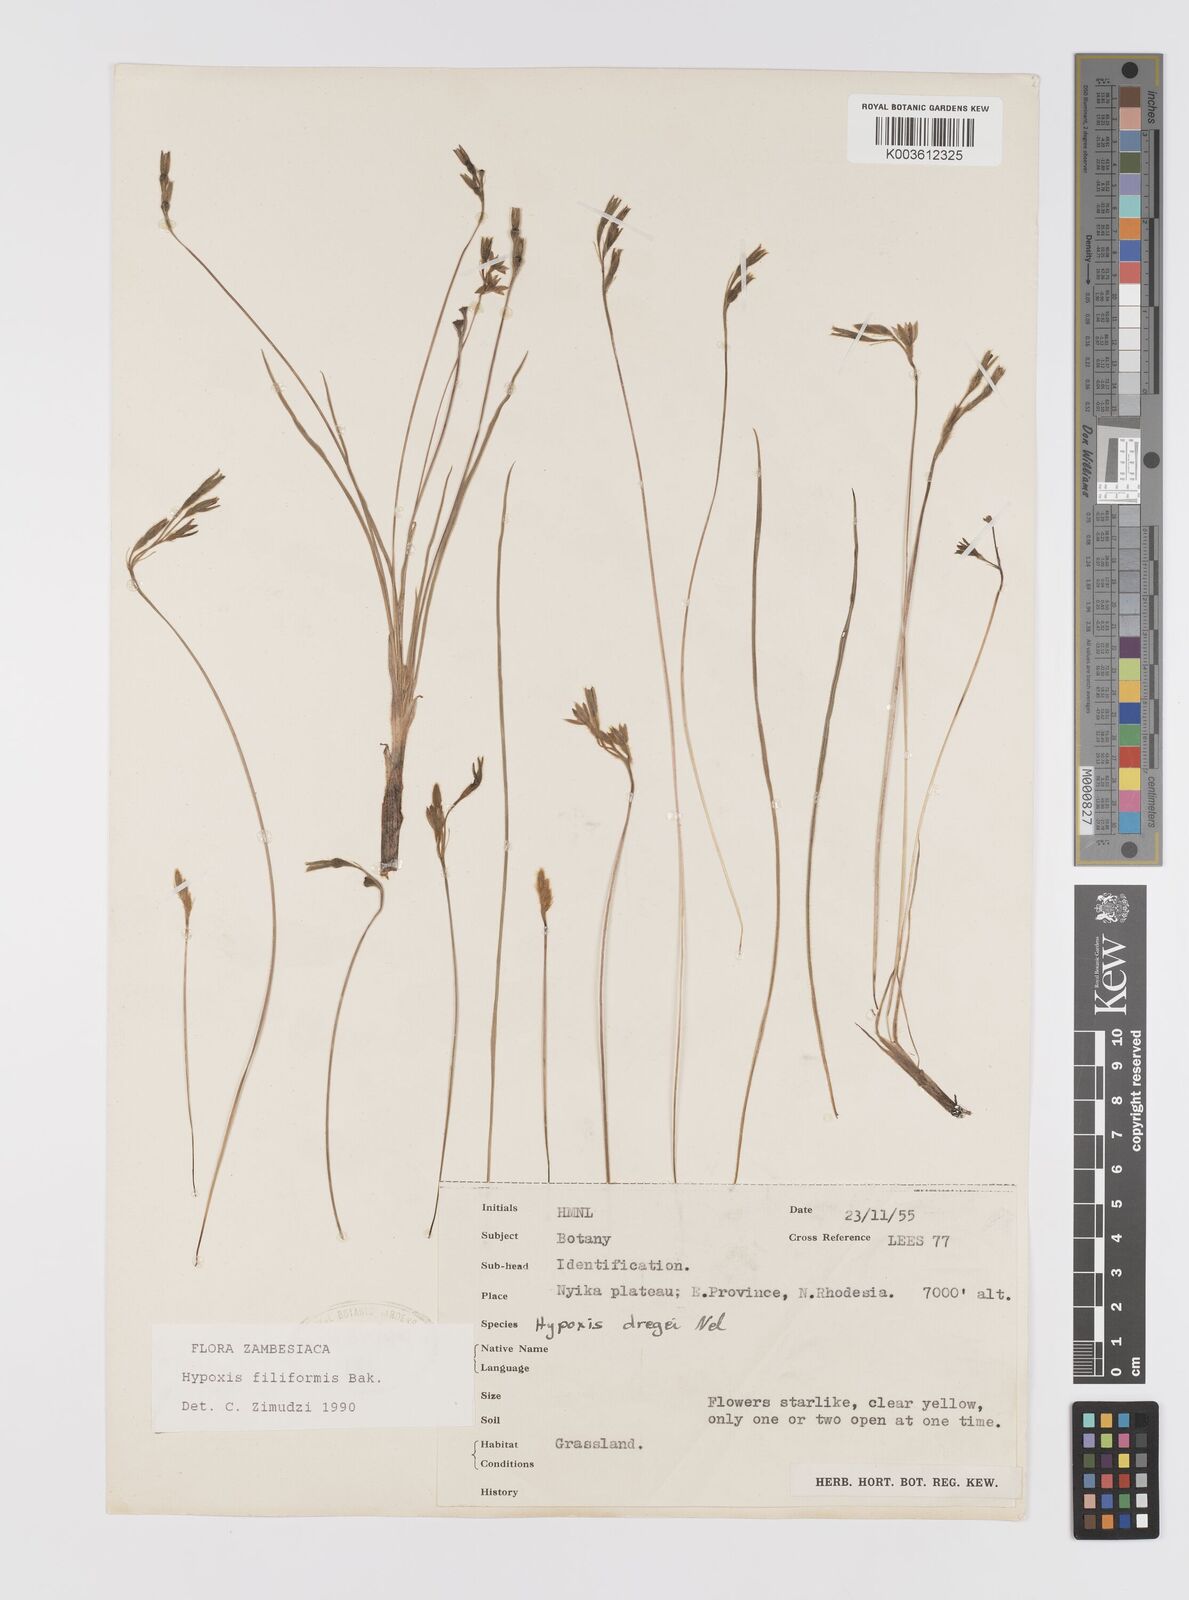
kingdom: Plantae
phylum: Tracheophyta
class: Liliopsida
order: Asparagales
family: Hypoxidaceae
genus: Hypoxis
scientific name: Hypoxis filiformis
